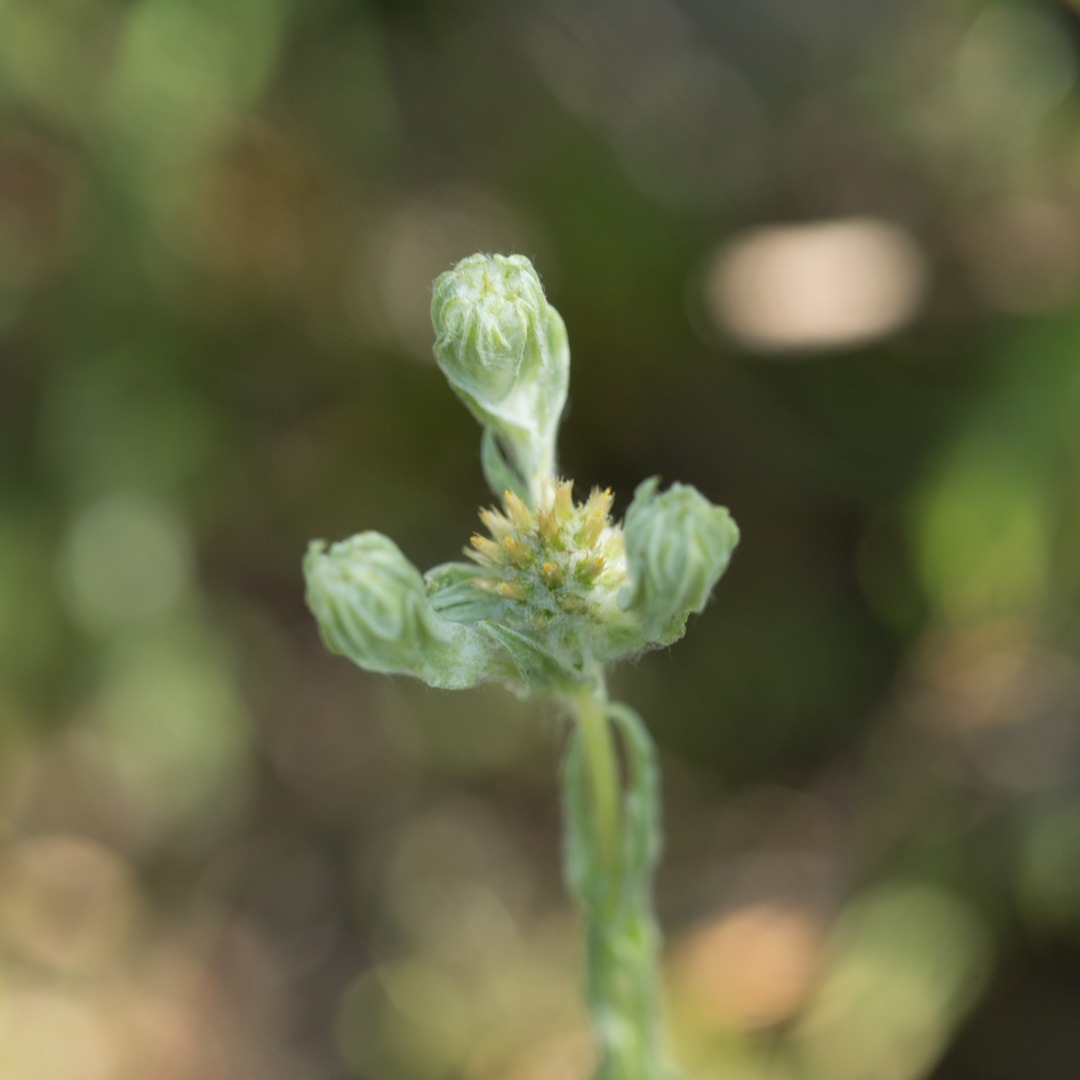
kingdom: Plantae
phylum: Tracheophyta
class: Magnoliopsida
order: Asterales
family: Asteraceae
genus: Filago
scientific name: Filago germanica
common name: Kugle-museurt
